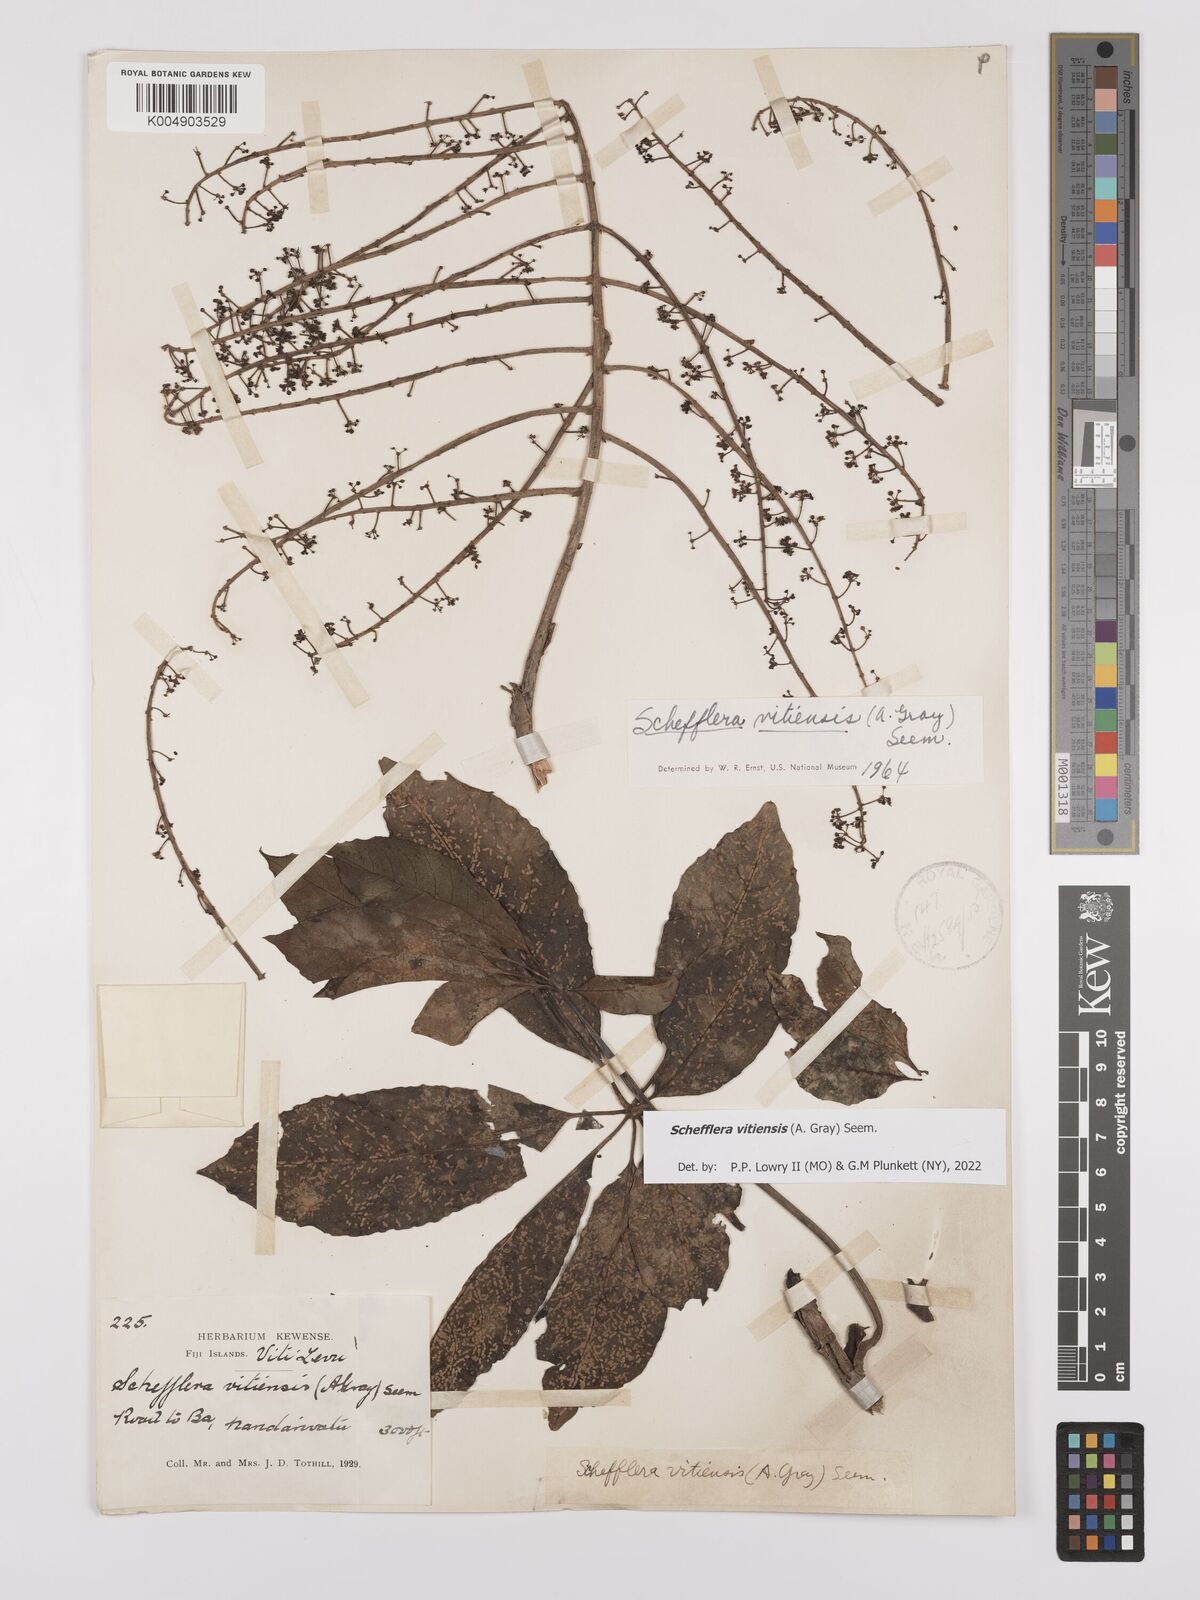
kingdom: Plantae
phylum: Tracheophyta
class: Magnoliopsida
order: Apiales
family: Araliaceae
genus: Schefflera
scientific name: Schefflera vitiensis
